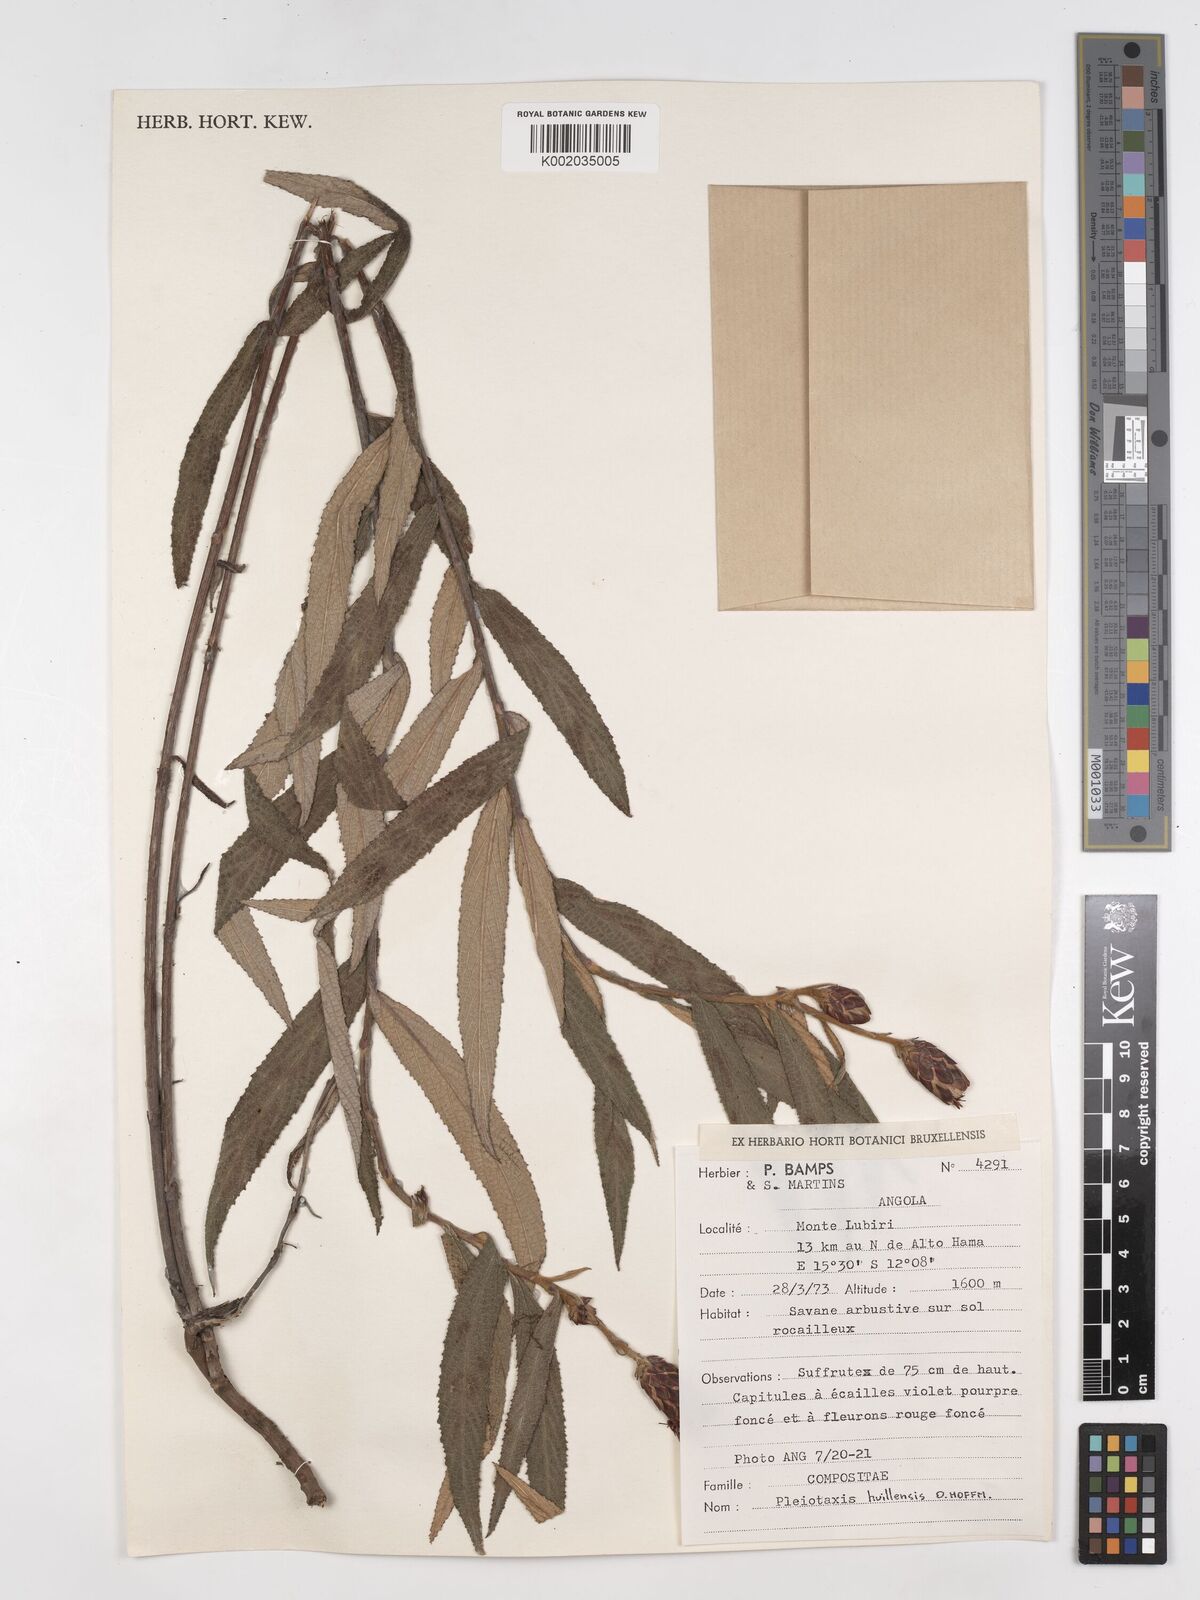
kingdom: Plantae
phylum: Tracheophyta
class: Magnoliopsida
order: Asterales
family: Asteraceae
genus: Pleiotaxis
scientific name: Pleiotaxis huillensis
